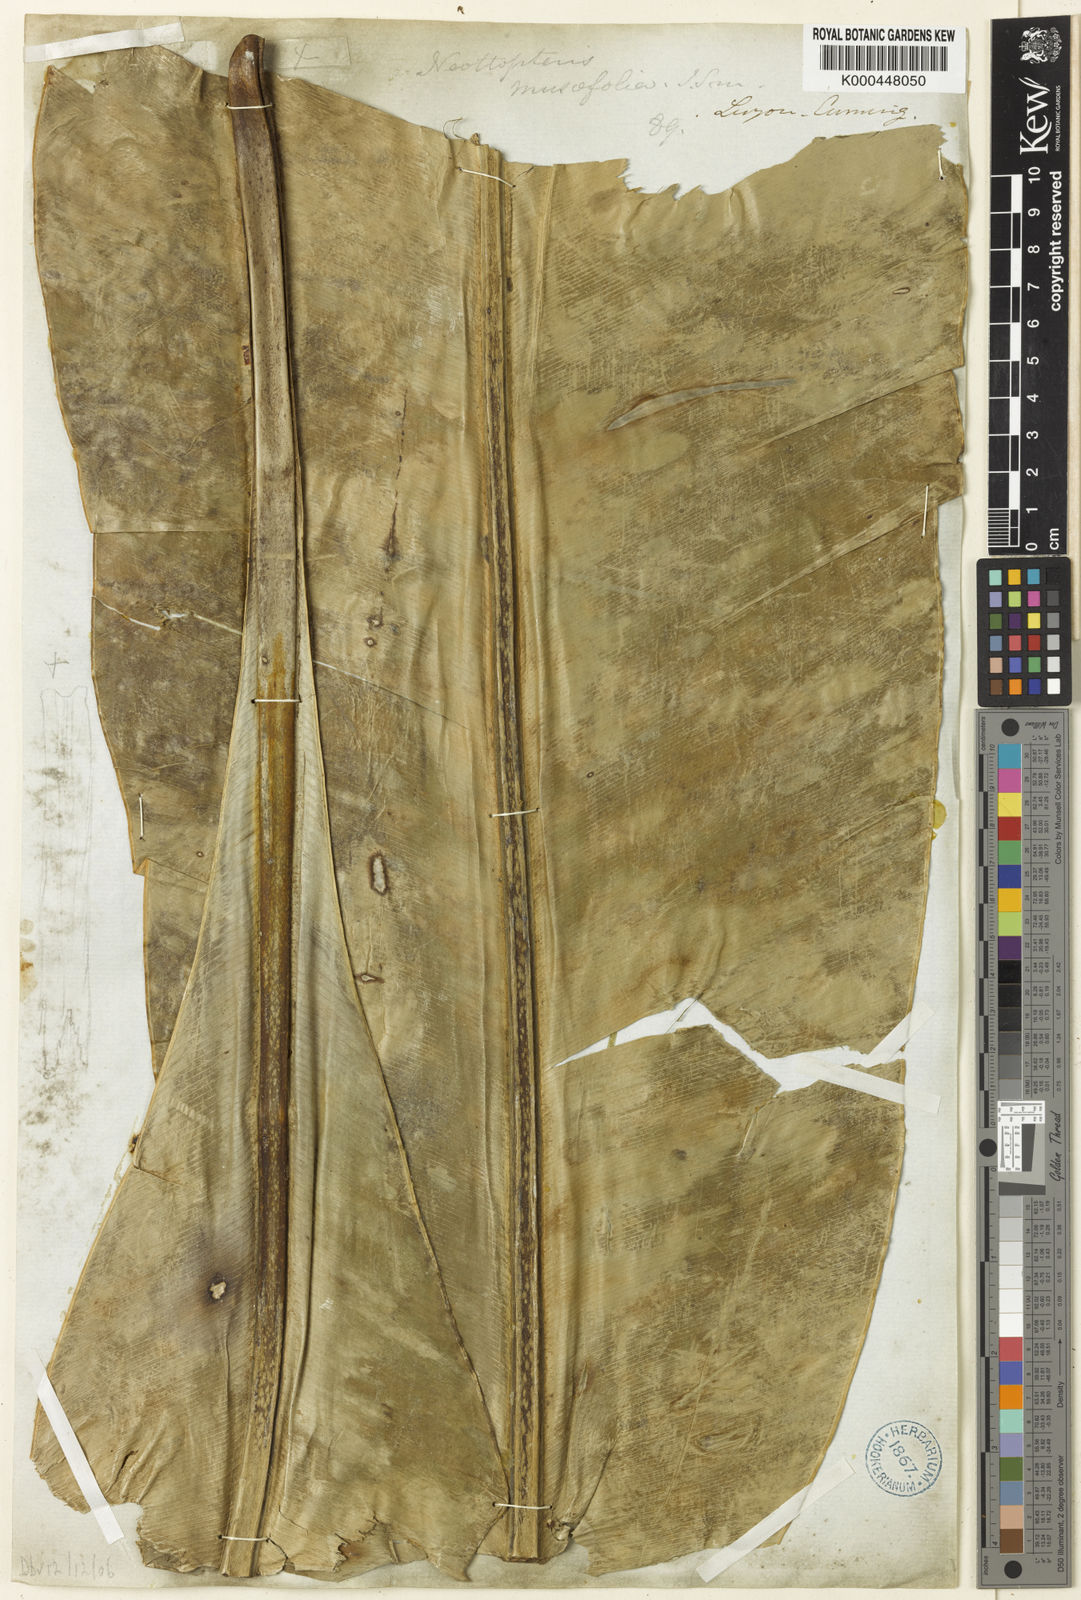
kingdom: Plantae
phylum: Tracheophyta
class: Polypodiopsida
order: Polypodiales
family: Aspleniaceae
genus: Asplenium
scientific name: Asplenium musifolium
